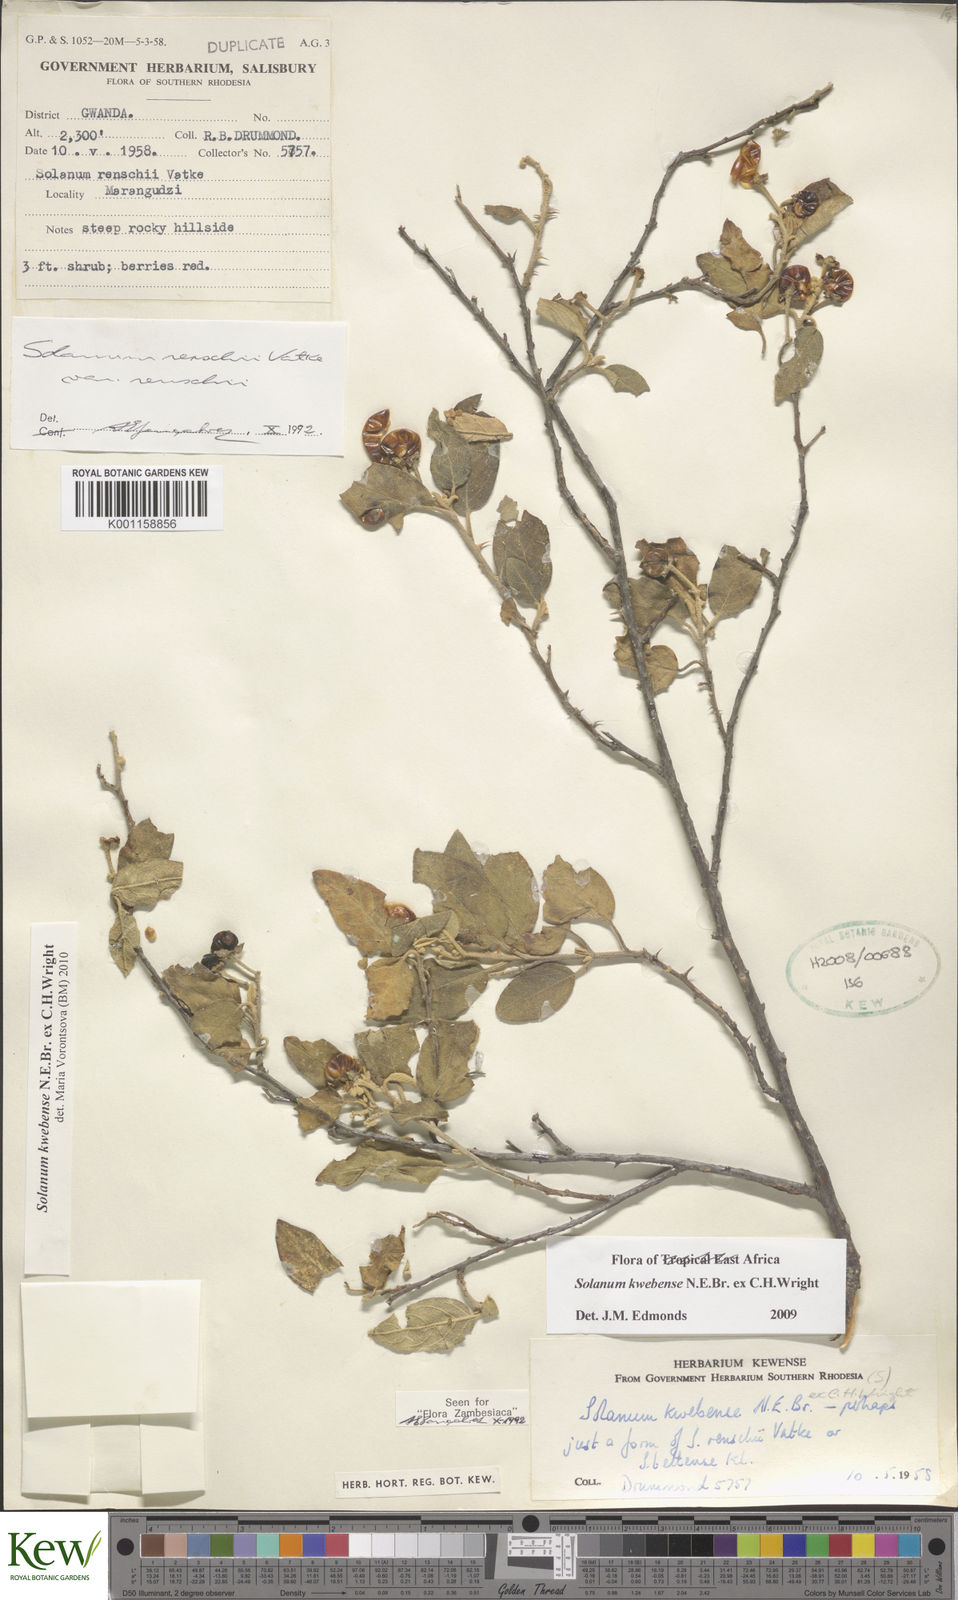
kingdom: Plantae
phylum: Tracheophyta
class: Magnoliopsida
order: Solanales
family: Solanaceae
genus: Solanum
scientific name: Solanum tettense
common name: Mozambique bitter apple
